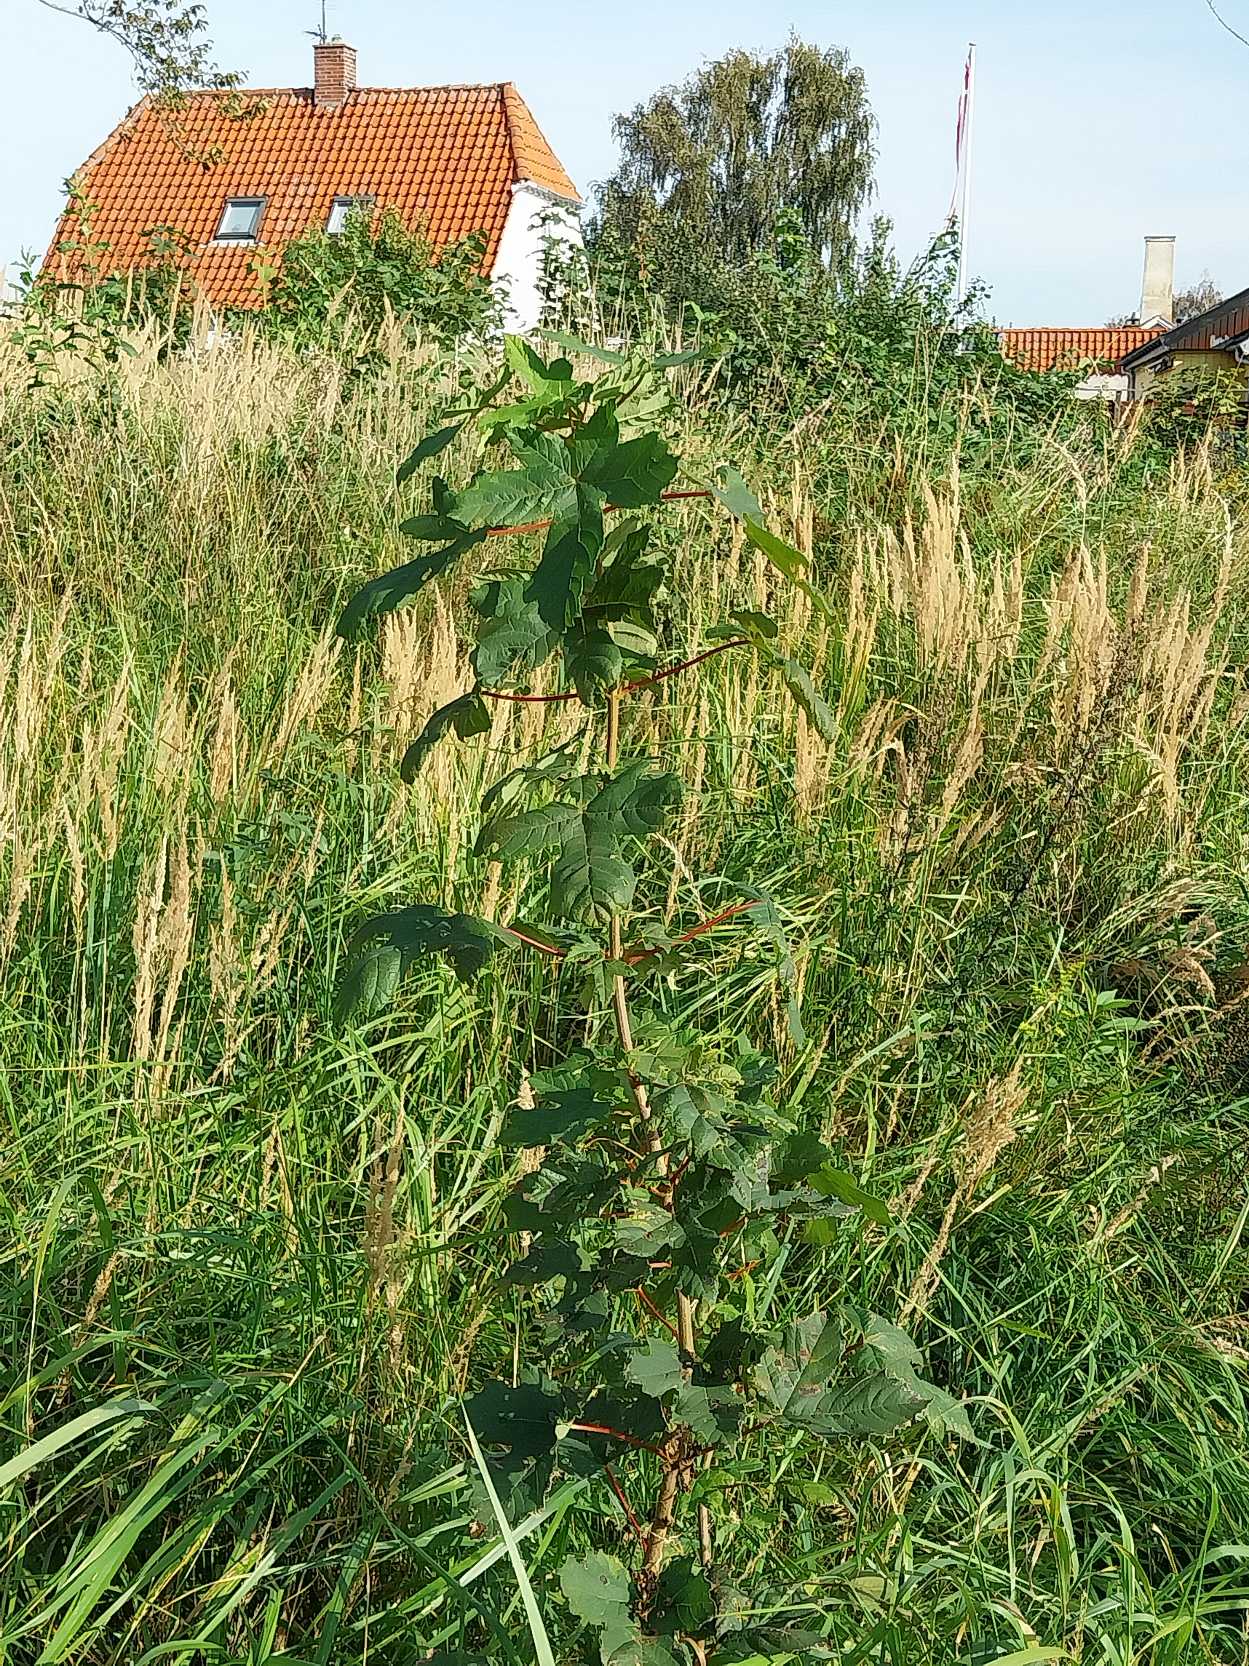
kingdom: Plantae
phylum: Tracheophyta
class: Magnoliopsida
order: Sapindales
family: Sapindaceae
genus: Acer
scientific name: Acer pseudoplatanus
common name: Ahorn
